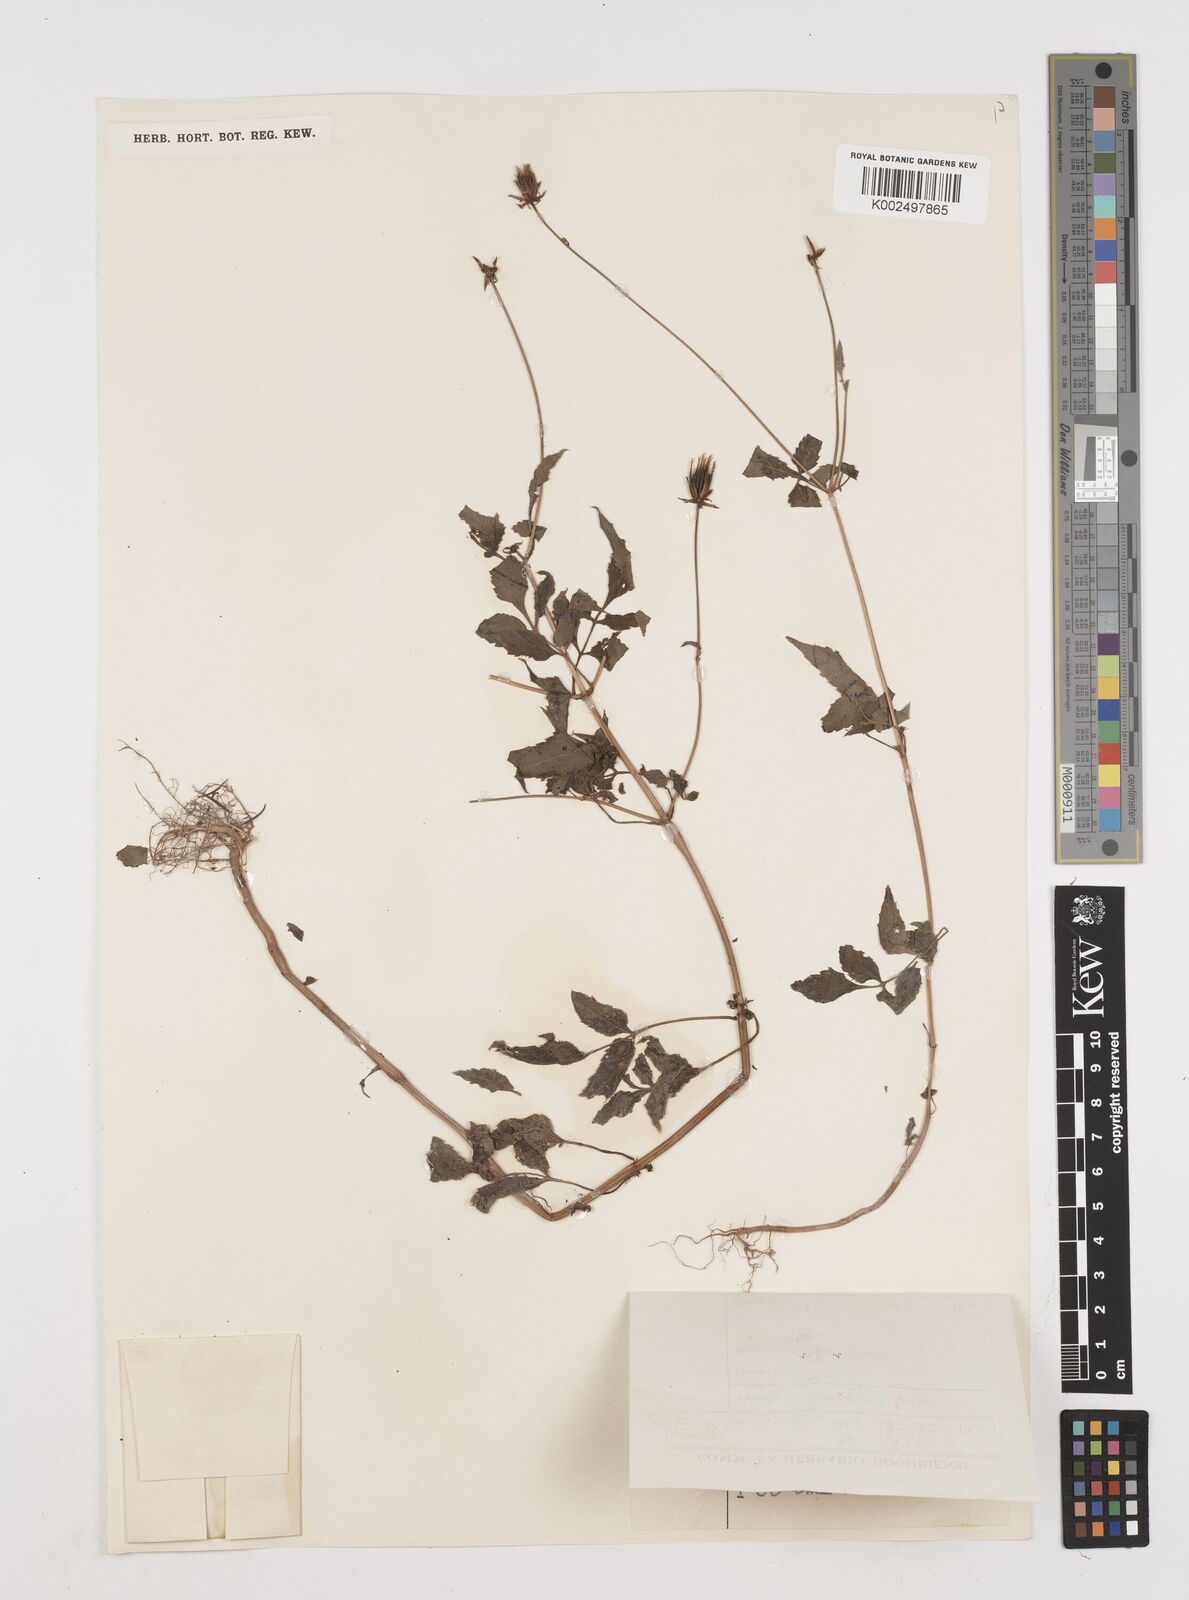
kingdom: Plantae
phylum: Tracheophyta
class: Magnoliopsida
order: Asterales
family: Asteraceae
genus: Bidens
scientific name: Bidens biternata
